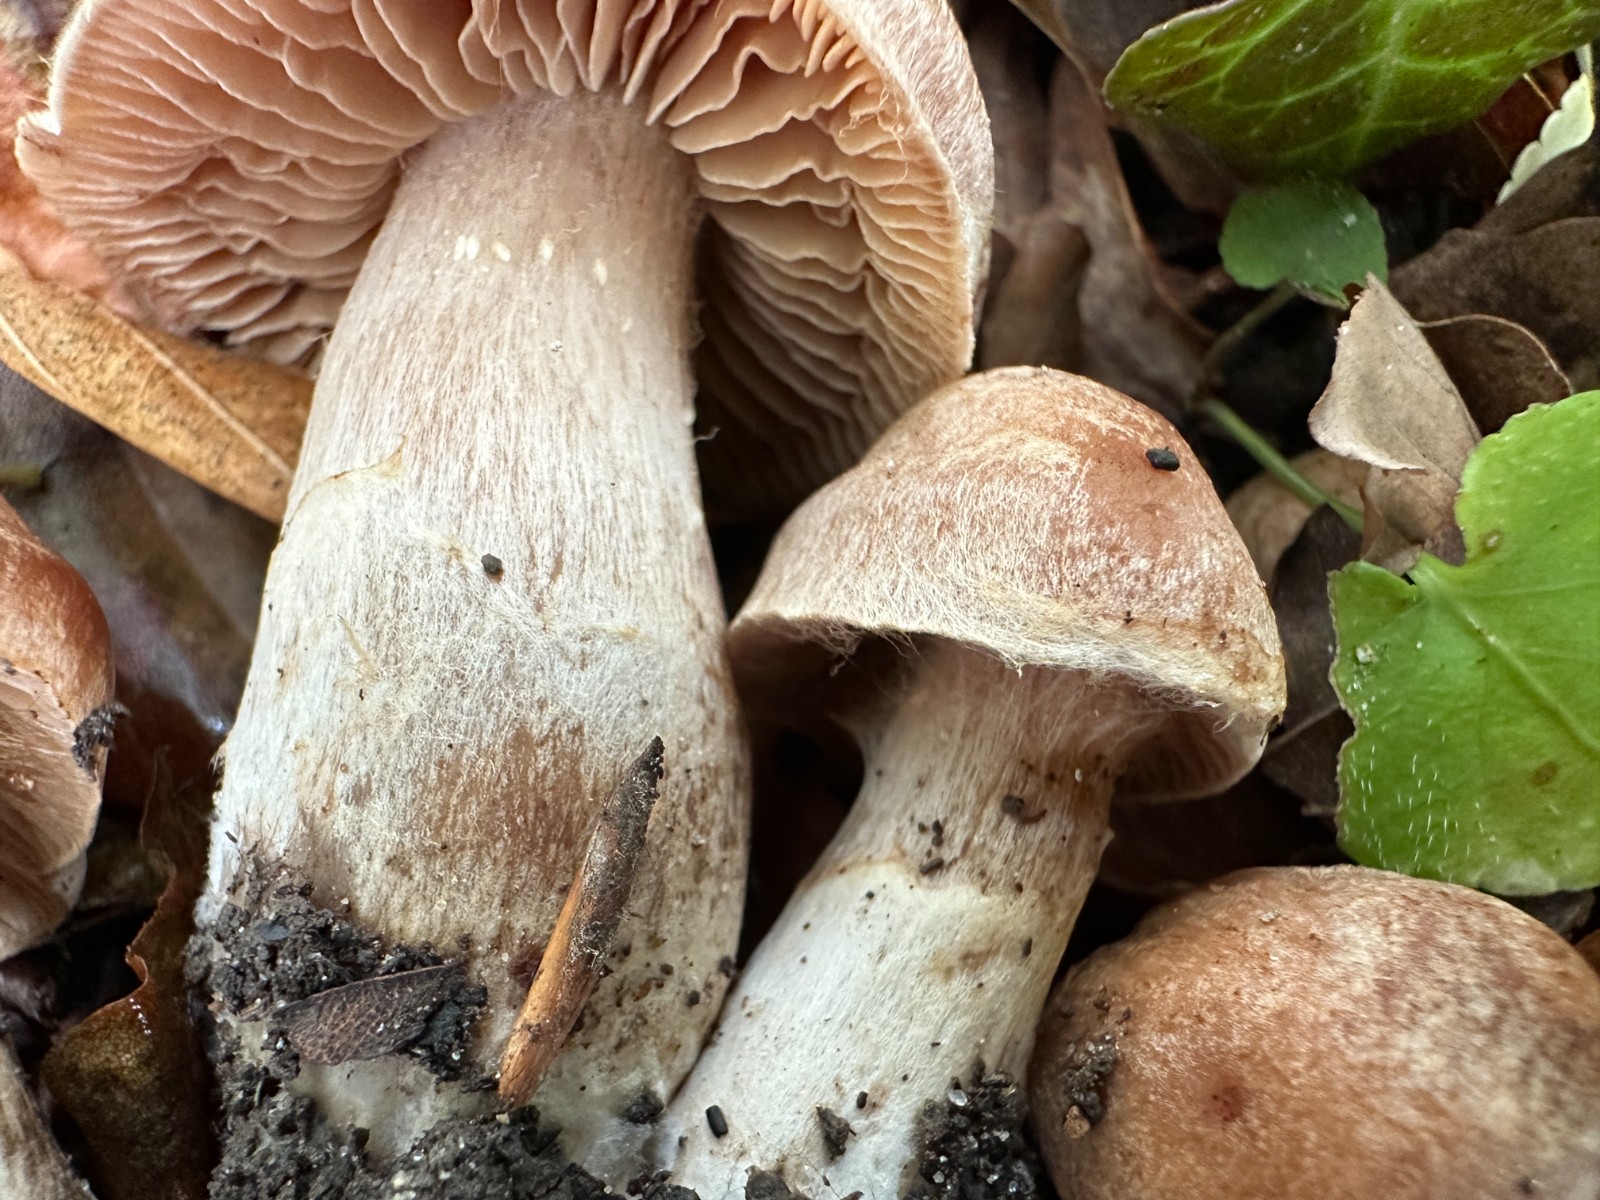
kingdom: Fungi
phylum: Basidiomycota
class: Agaricomycetes
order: Agaricales
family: Cortinariaceae
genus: Cortinarius
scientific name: Cortinarius
